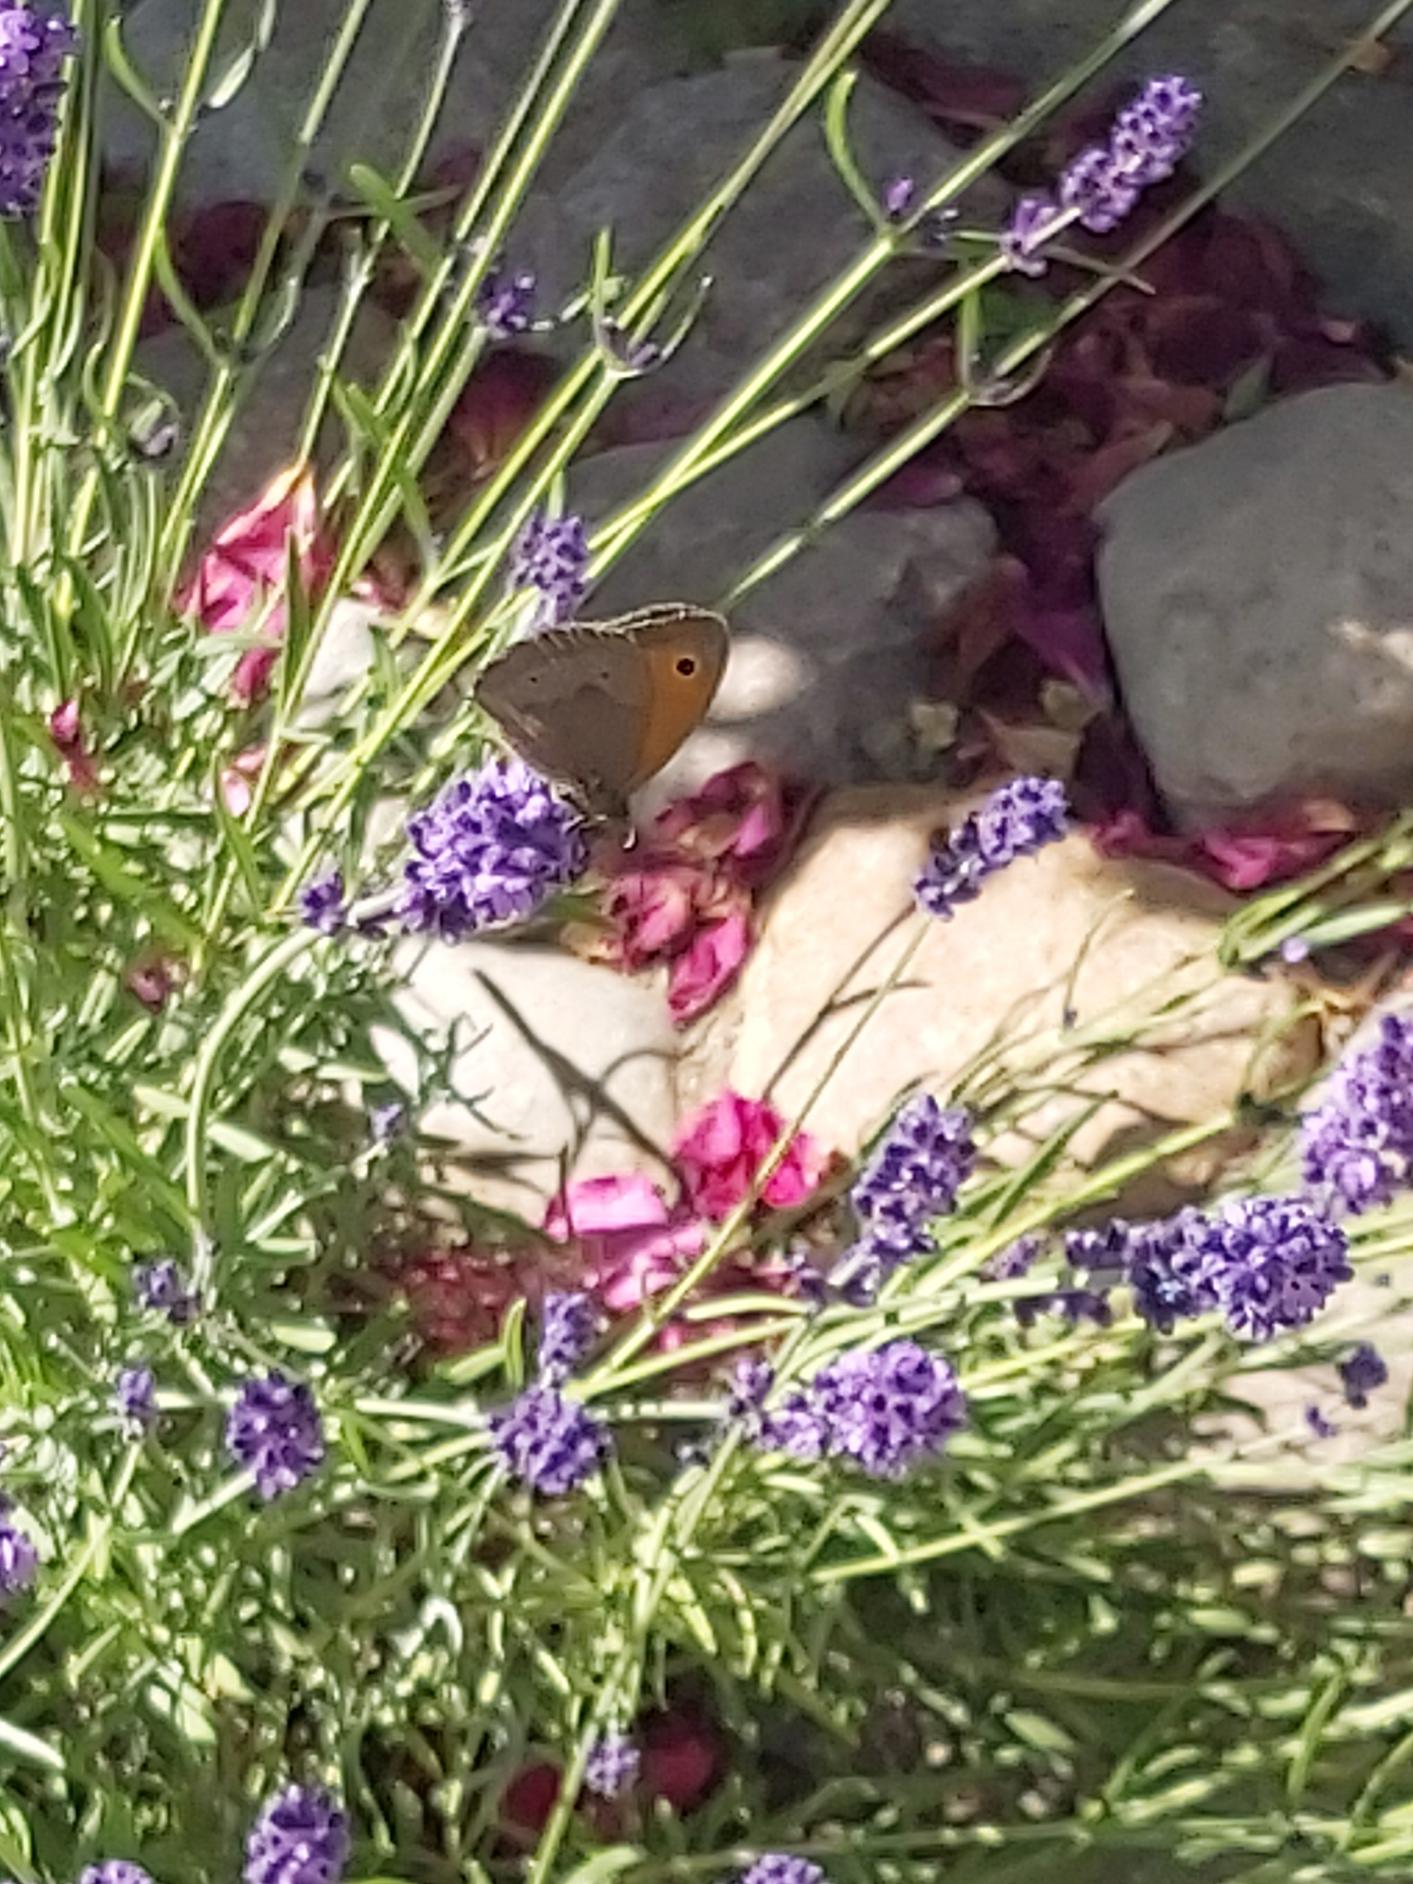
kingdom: Animalia
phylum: Arthropoda
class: Insecta
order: Lepidoptera
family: Nymphalidae
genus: Maniola
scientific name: Maniola jurtina
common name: Græsrandøje
